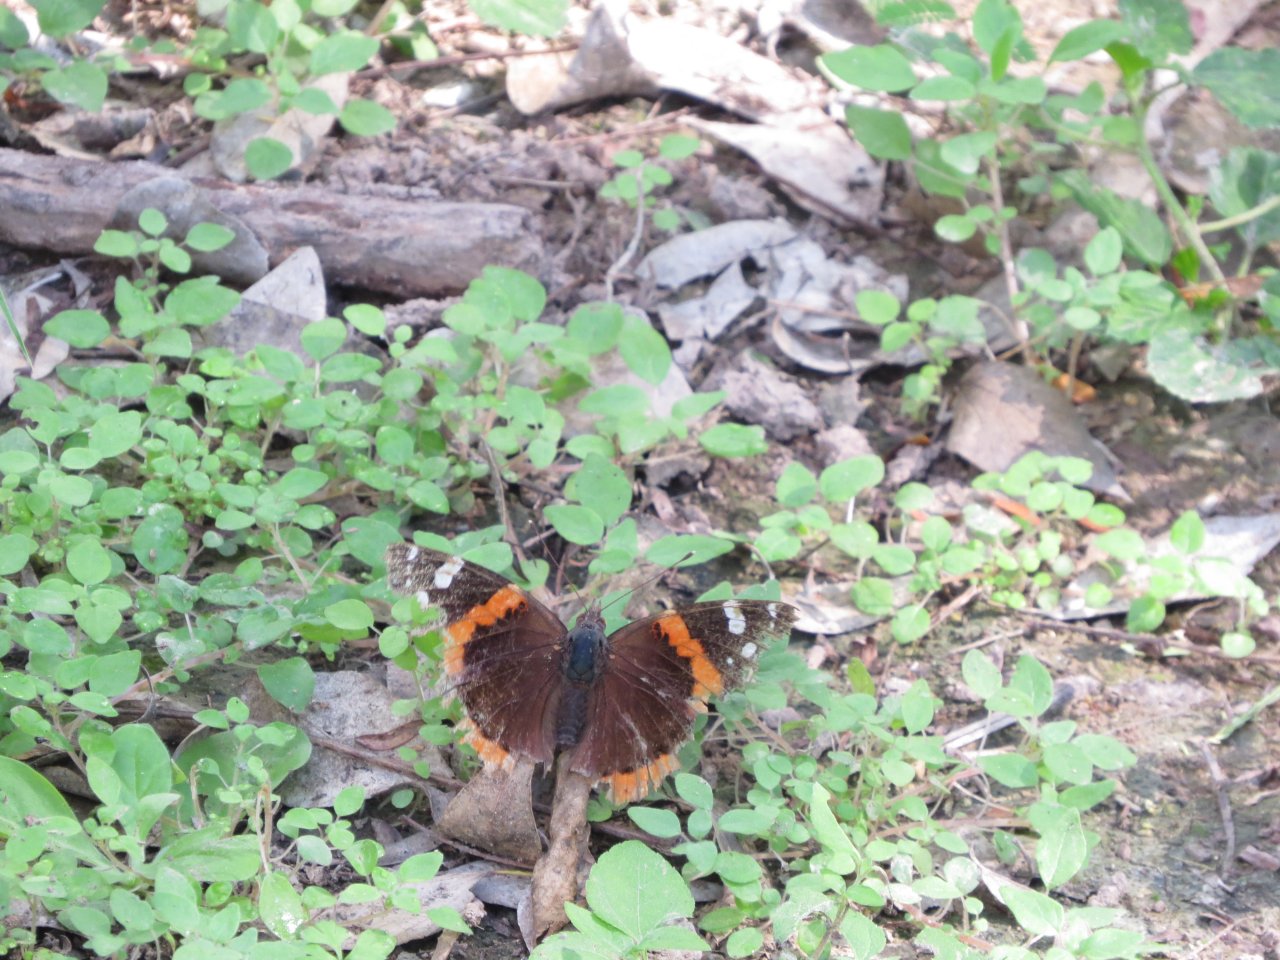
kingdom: Animalia
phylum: Arthropoda
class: Insecta
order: Lepidoptera
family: Nymphalidae
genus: Vanessa
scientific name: Vanessa atalanta
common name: Red Admiral
